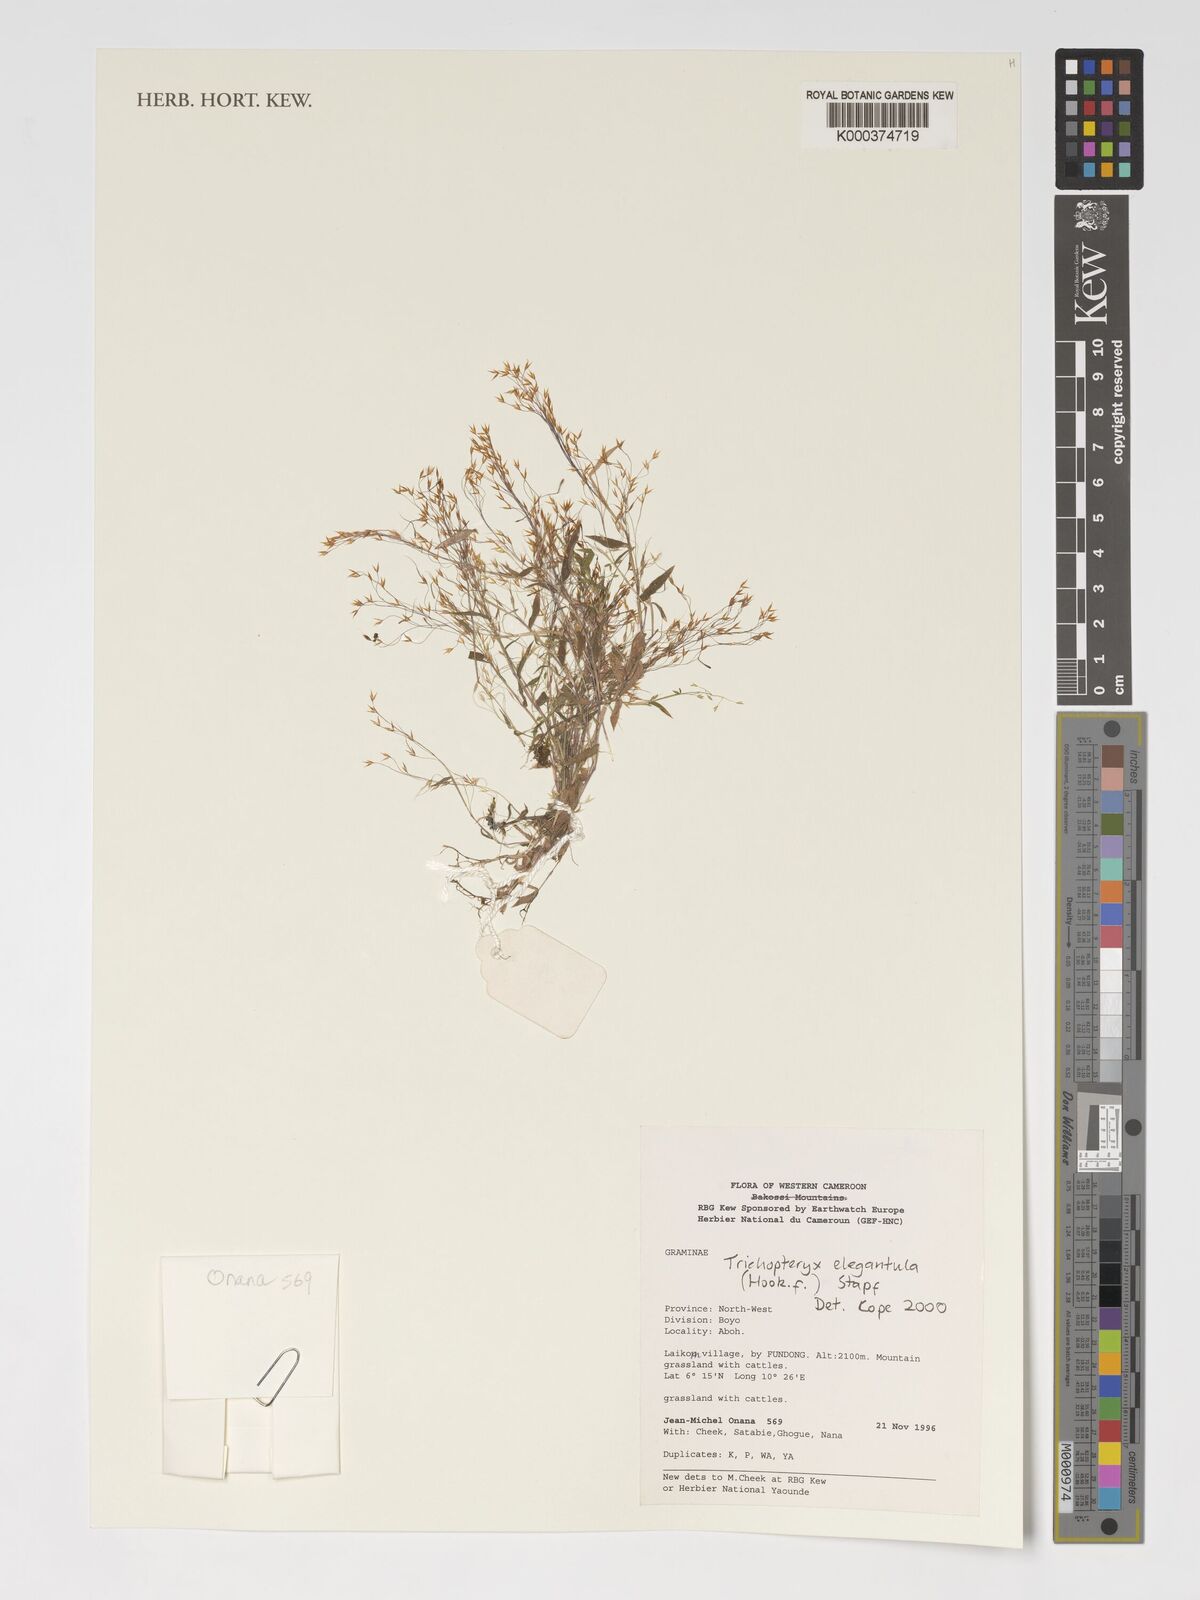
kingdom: Plantae
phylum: Tracheophyta
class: Liliopsida
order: Poales
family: Poaceae
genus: Trichopteryx
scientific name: Trichopteryx elegantula
